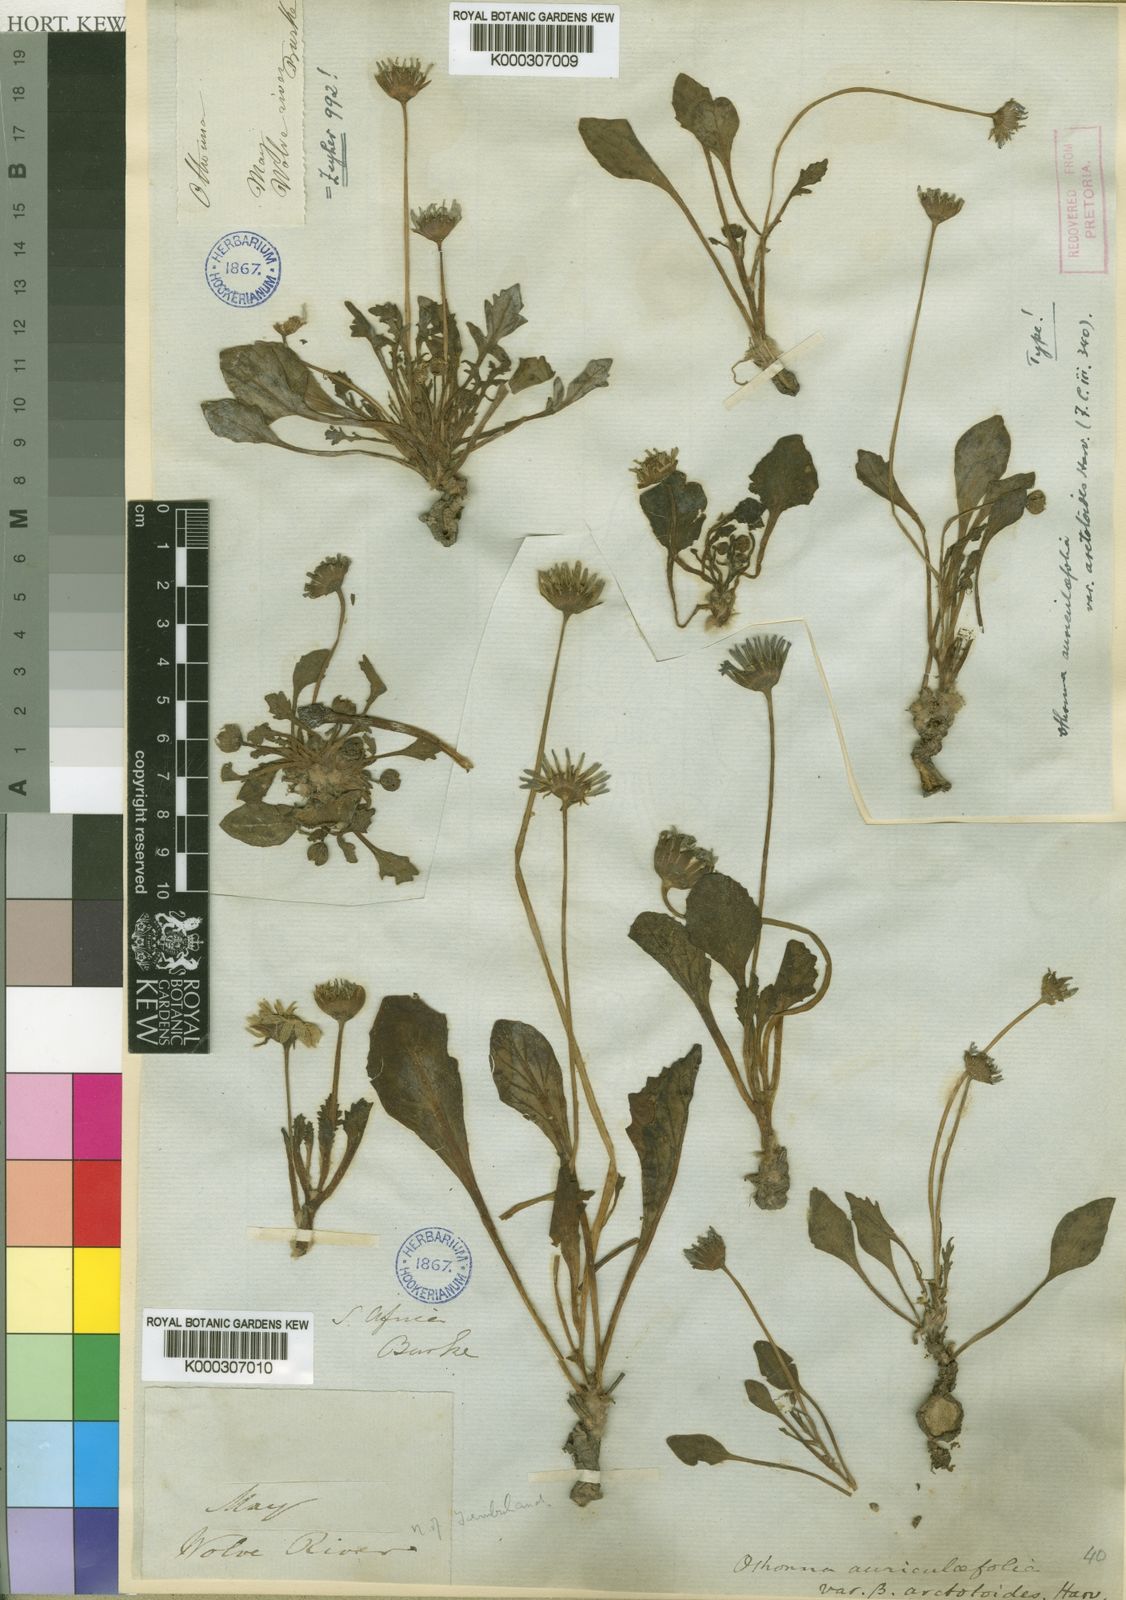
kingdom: Plantae
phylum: Tracheophyta
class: Magnoliopsida
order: Asterales
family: Asteraceae
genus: Othonna
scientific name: Othonna auriculifolia
